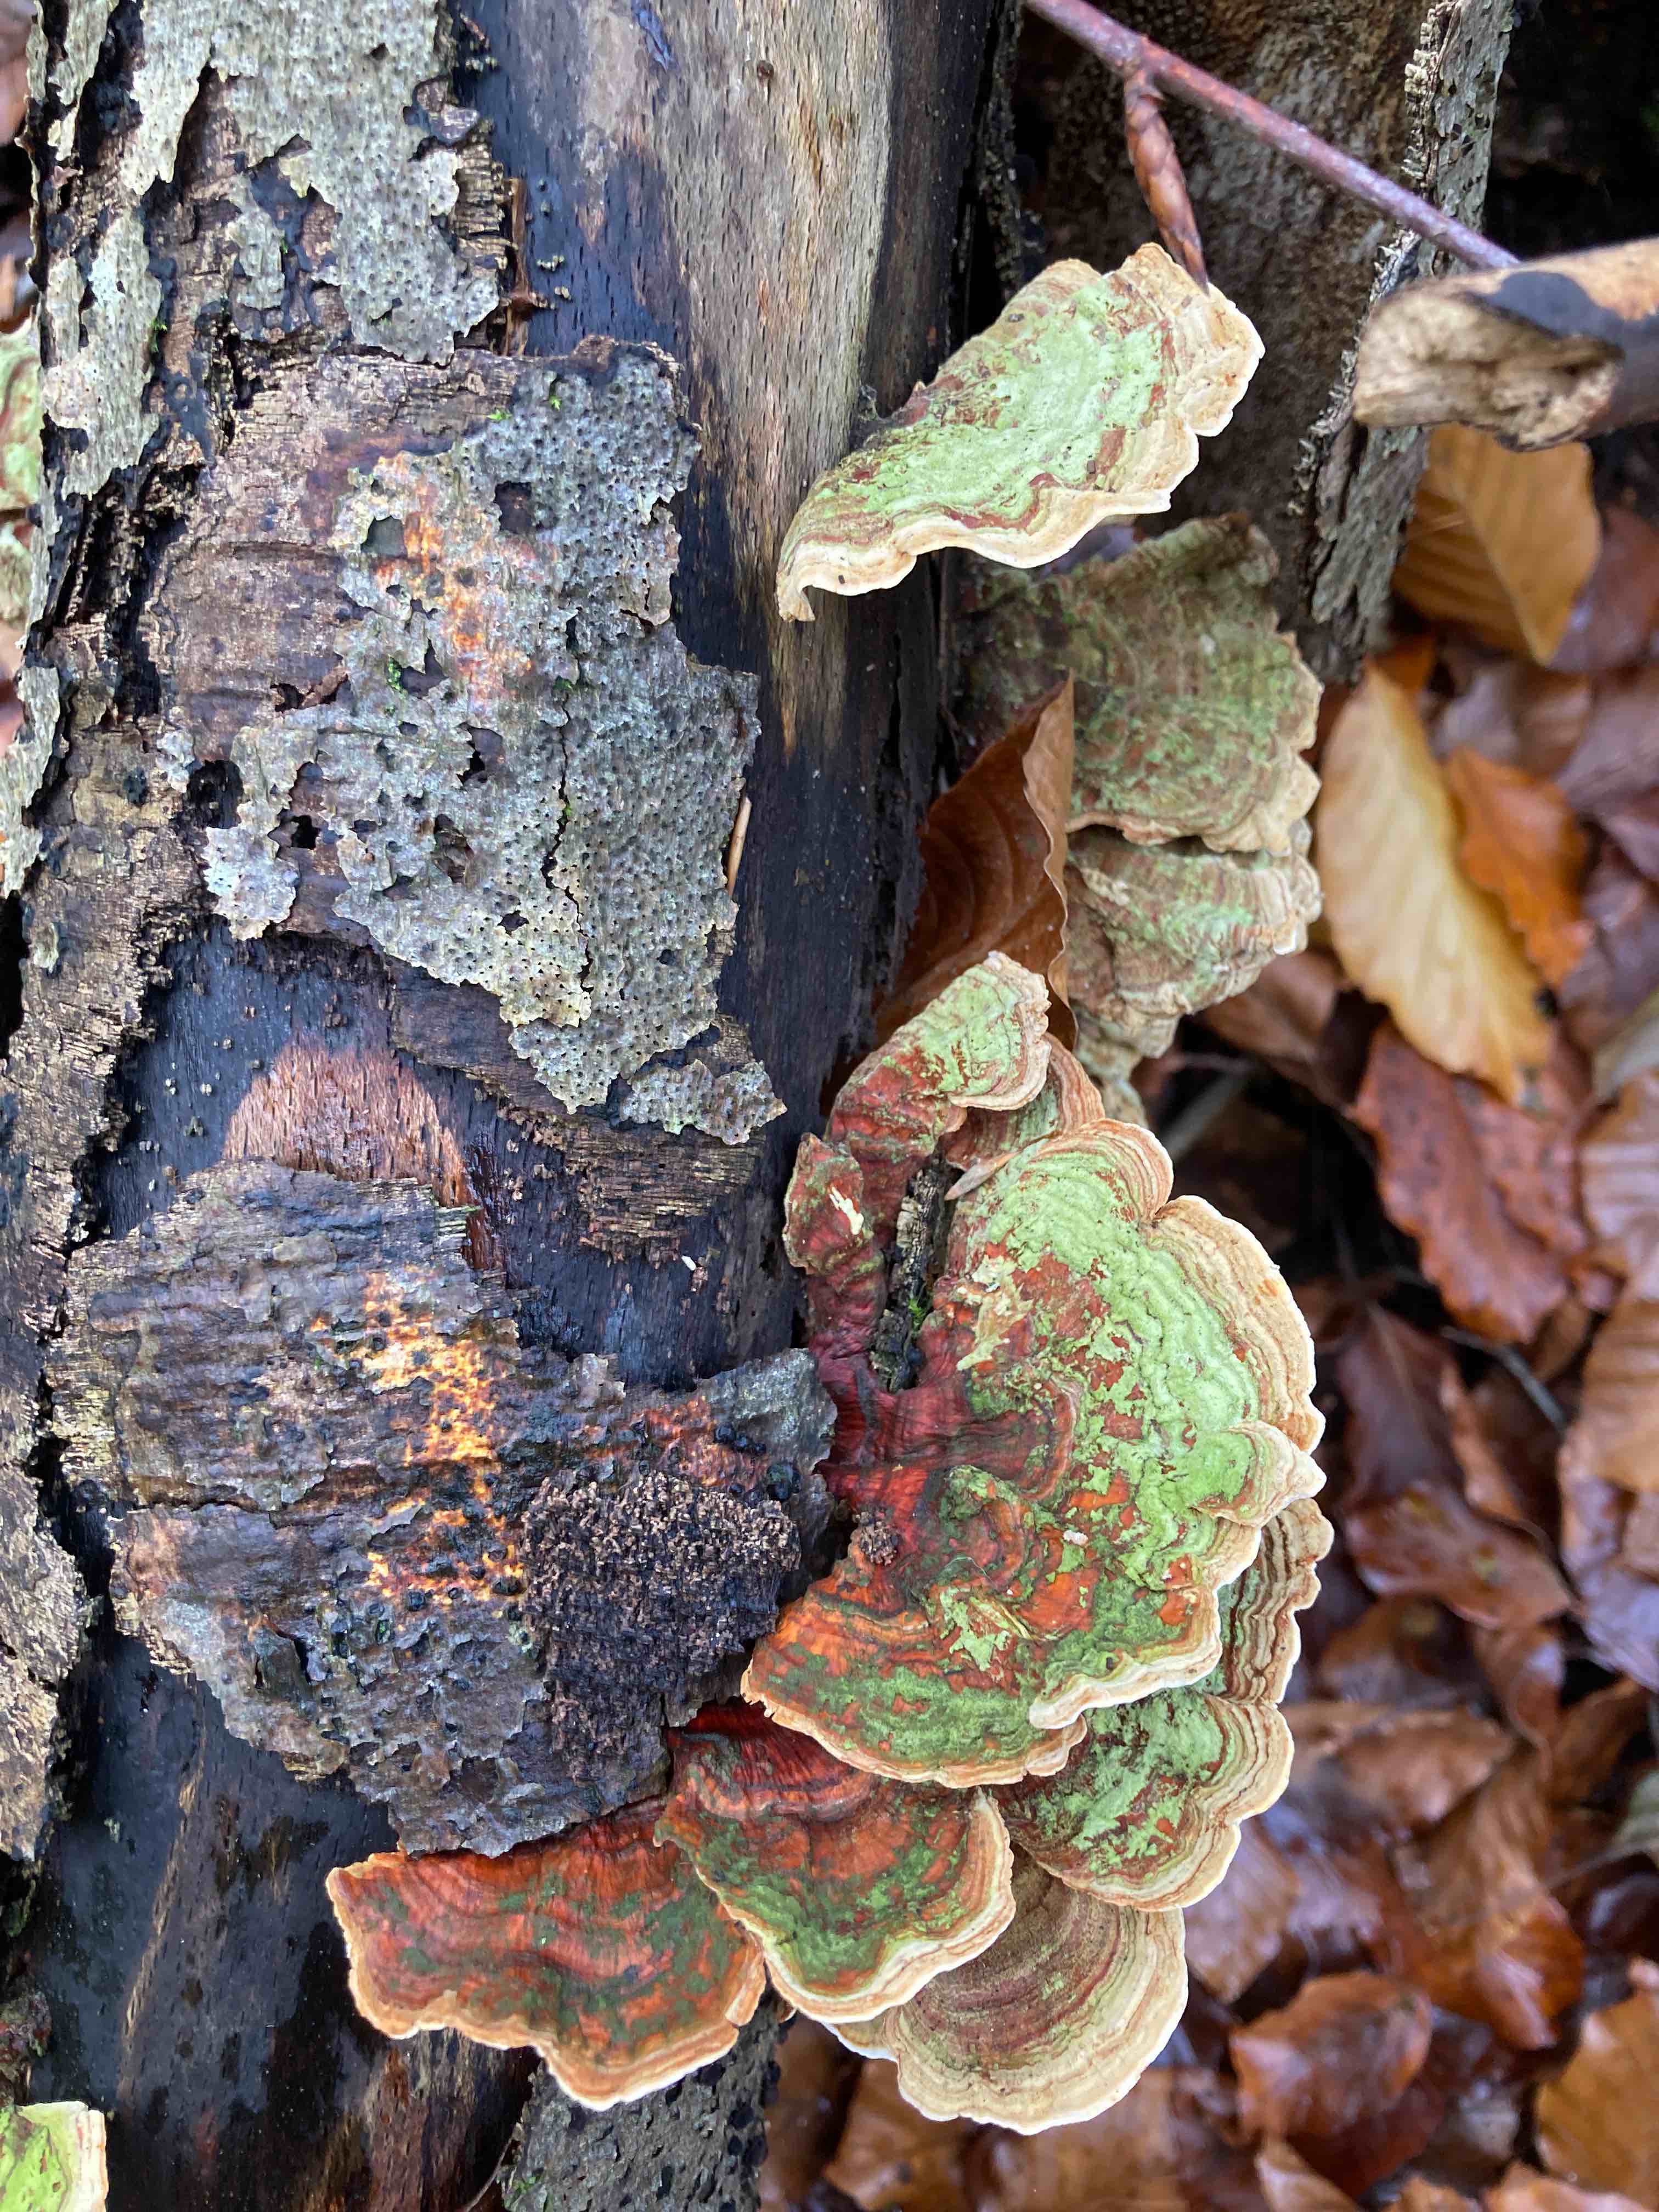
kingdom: Fungi
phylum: Basidiomycota
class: Agaricomycetes
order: Russulales
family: Stereaceae
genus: Stereum
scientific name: Stereum subtomentosum
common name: smuk lædersvamp
